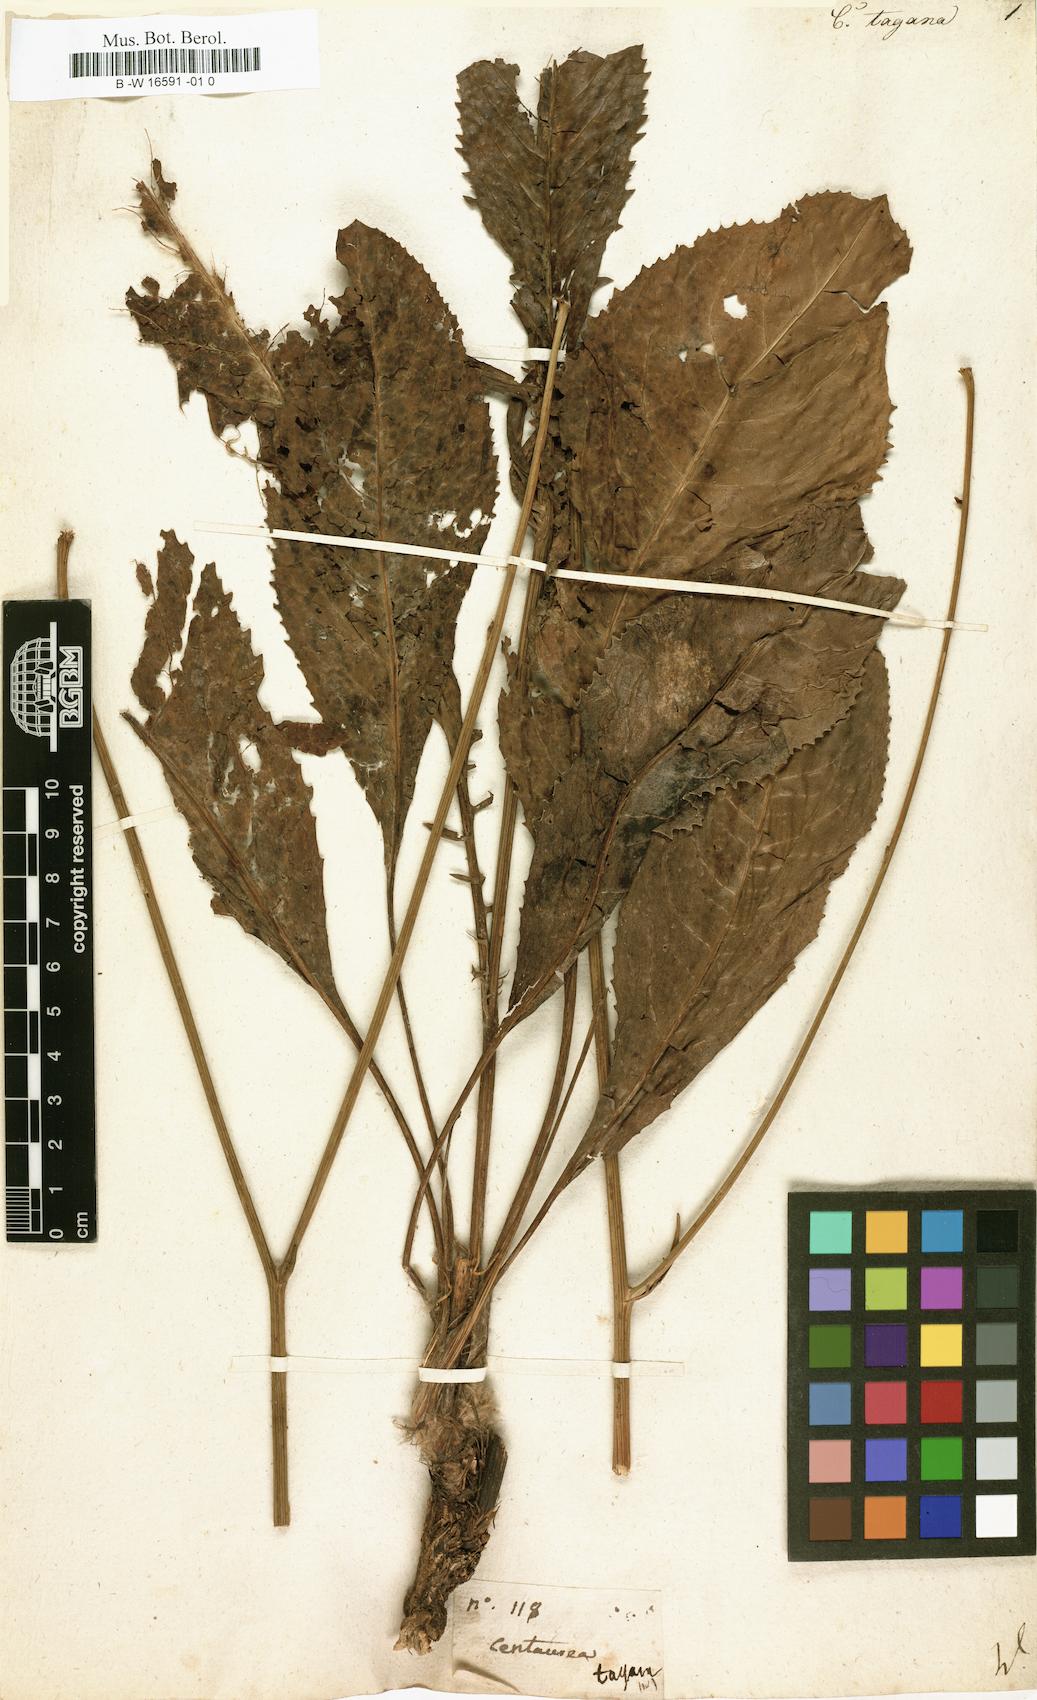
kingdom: Plantae
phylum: Tracheophyta
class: Magnoliopsida
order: Asterales
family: Asteraceae
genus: Rhaponticoides
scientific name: Rhaponticoides africana
